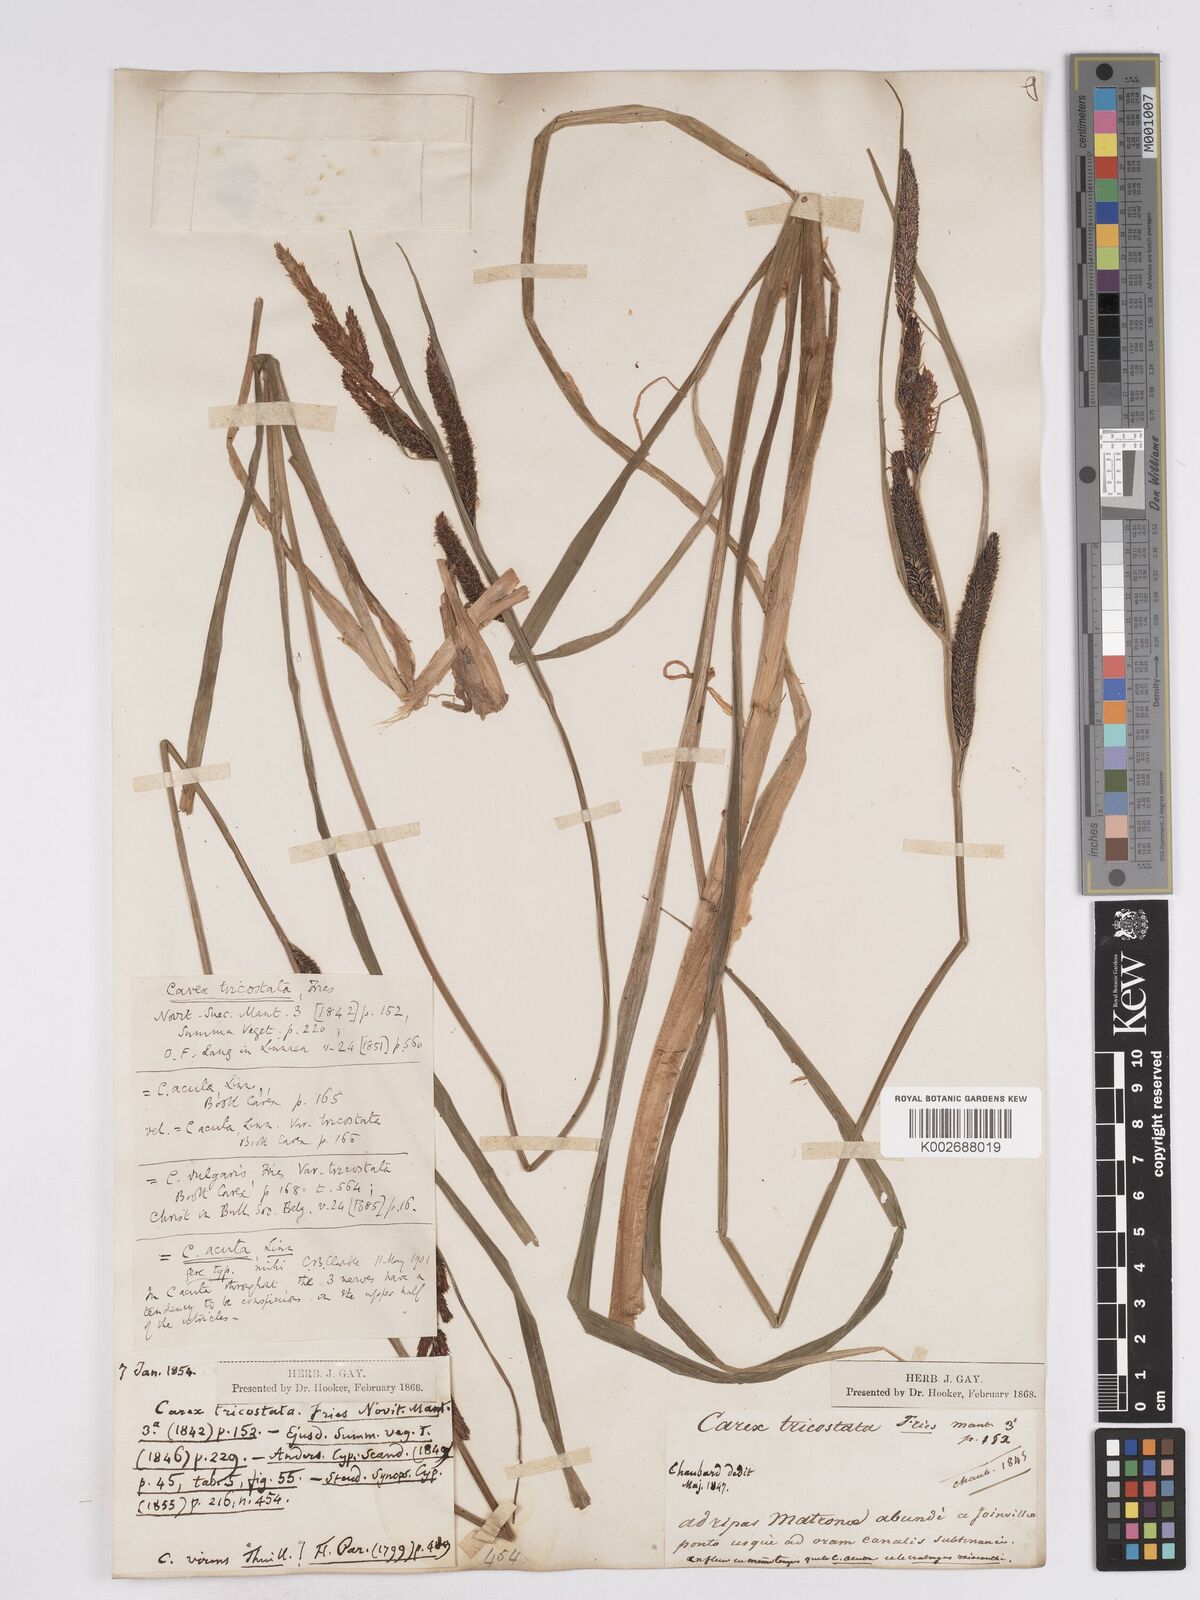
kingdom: Plantae
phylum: Tracheophyta
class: Liliopsida
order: Poales
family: Cyperaceae
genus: Carex
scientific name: Carex acuta
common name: Slender tufted-sedge
